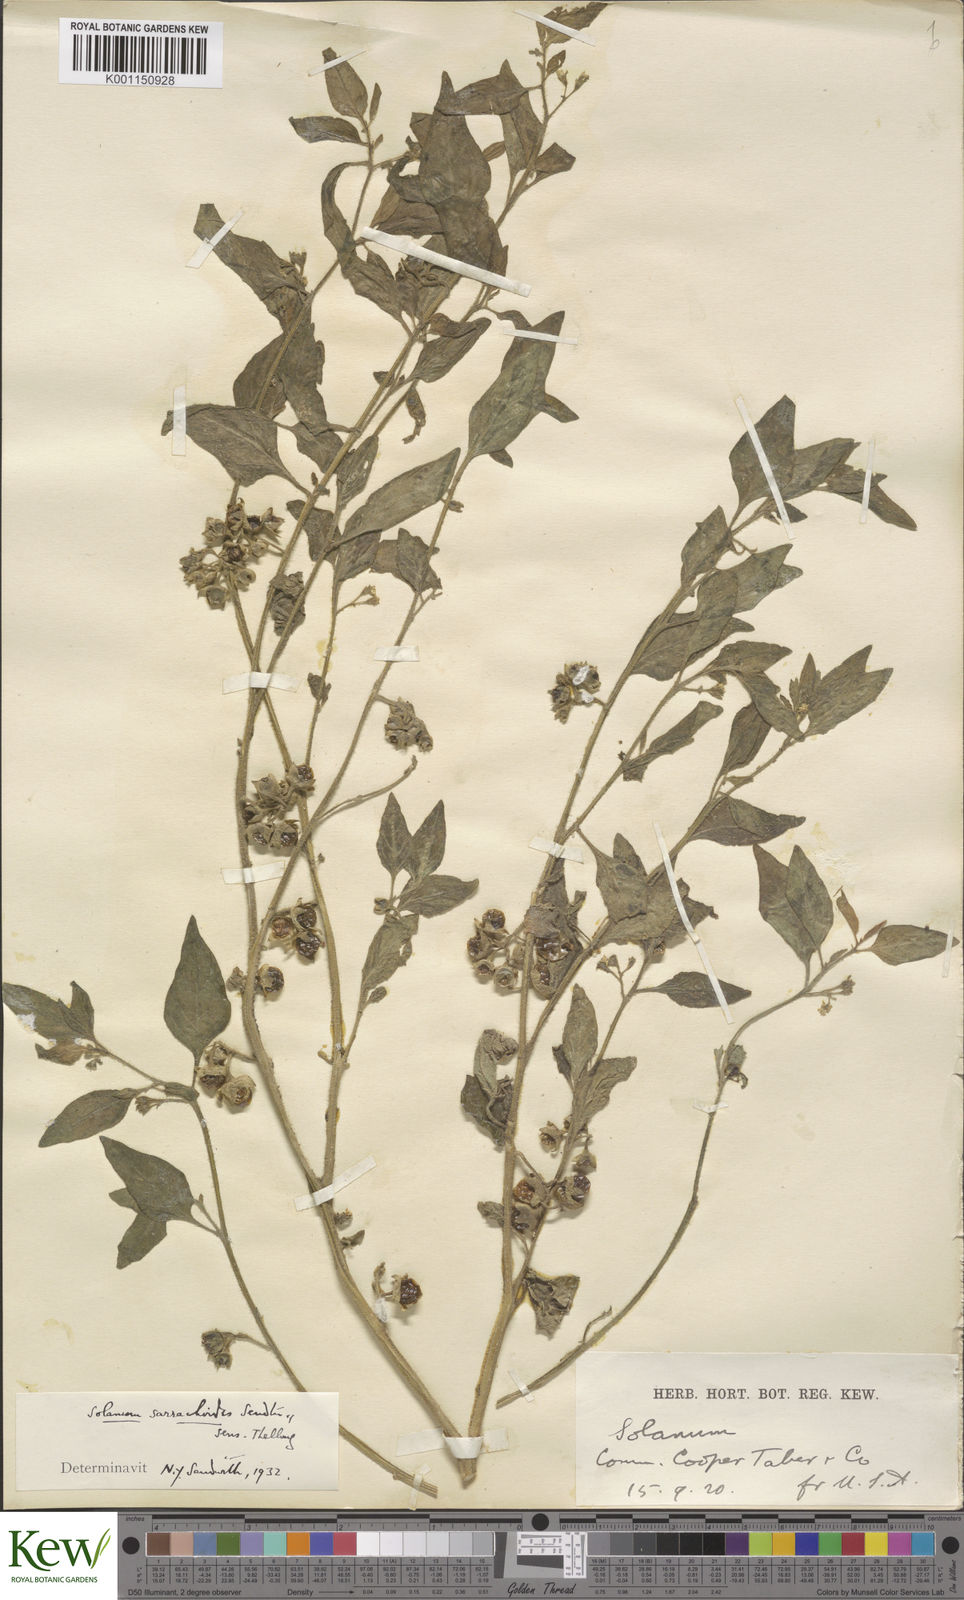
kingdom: Plantae
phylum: Tracheophyta
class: Magnoliopsida
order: Solanales
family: Solanaceae
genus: Solanum
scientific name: Solanum nitidibaccatum
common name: Hairy nightshade
